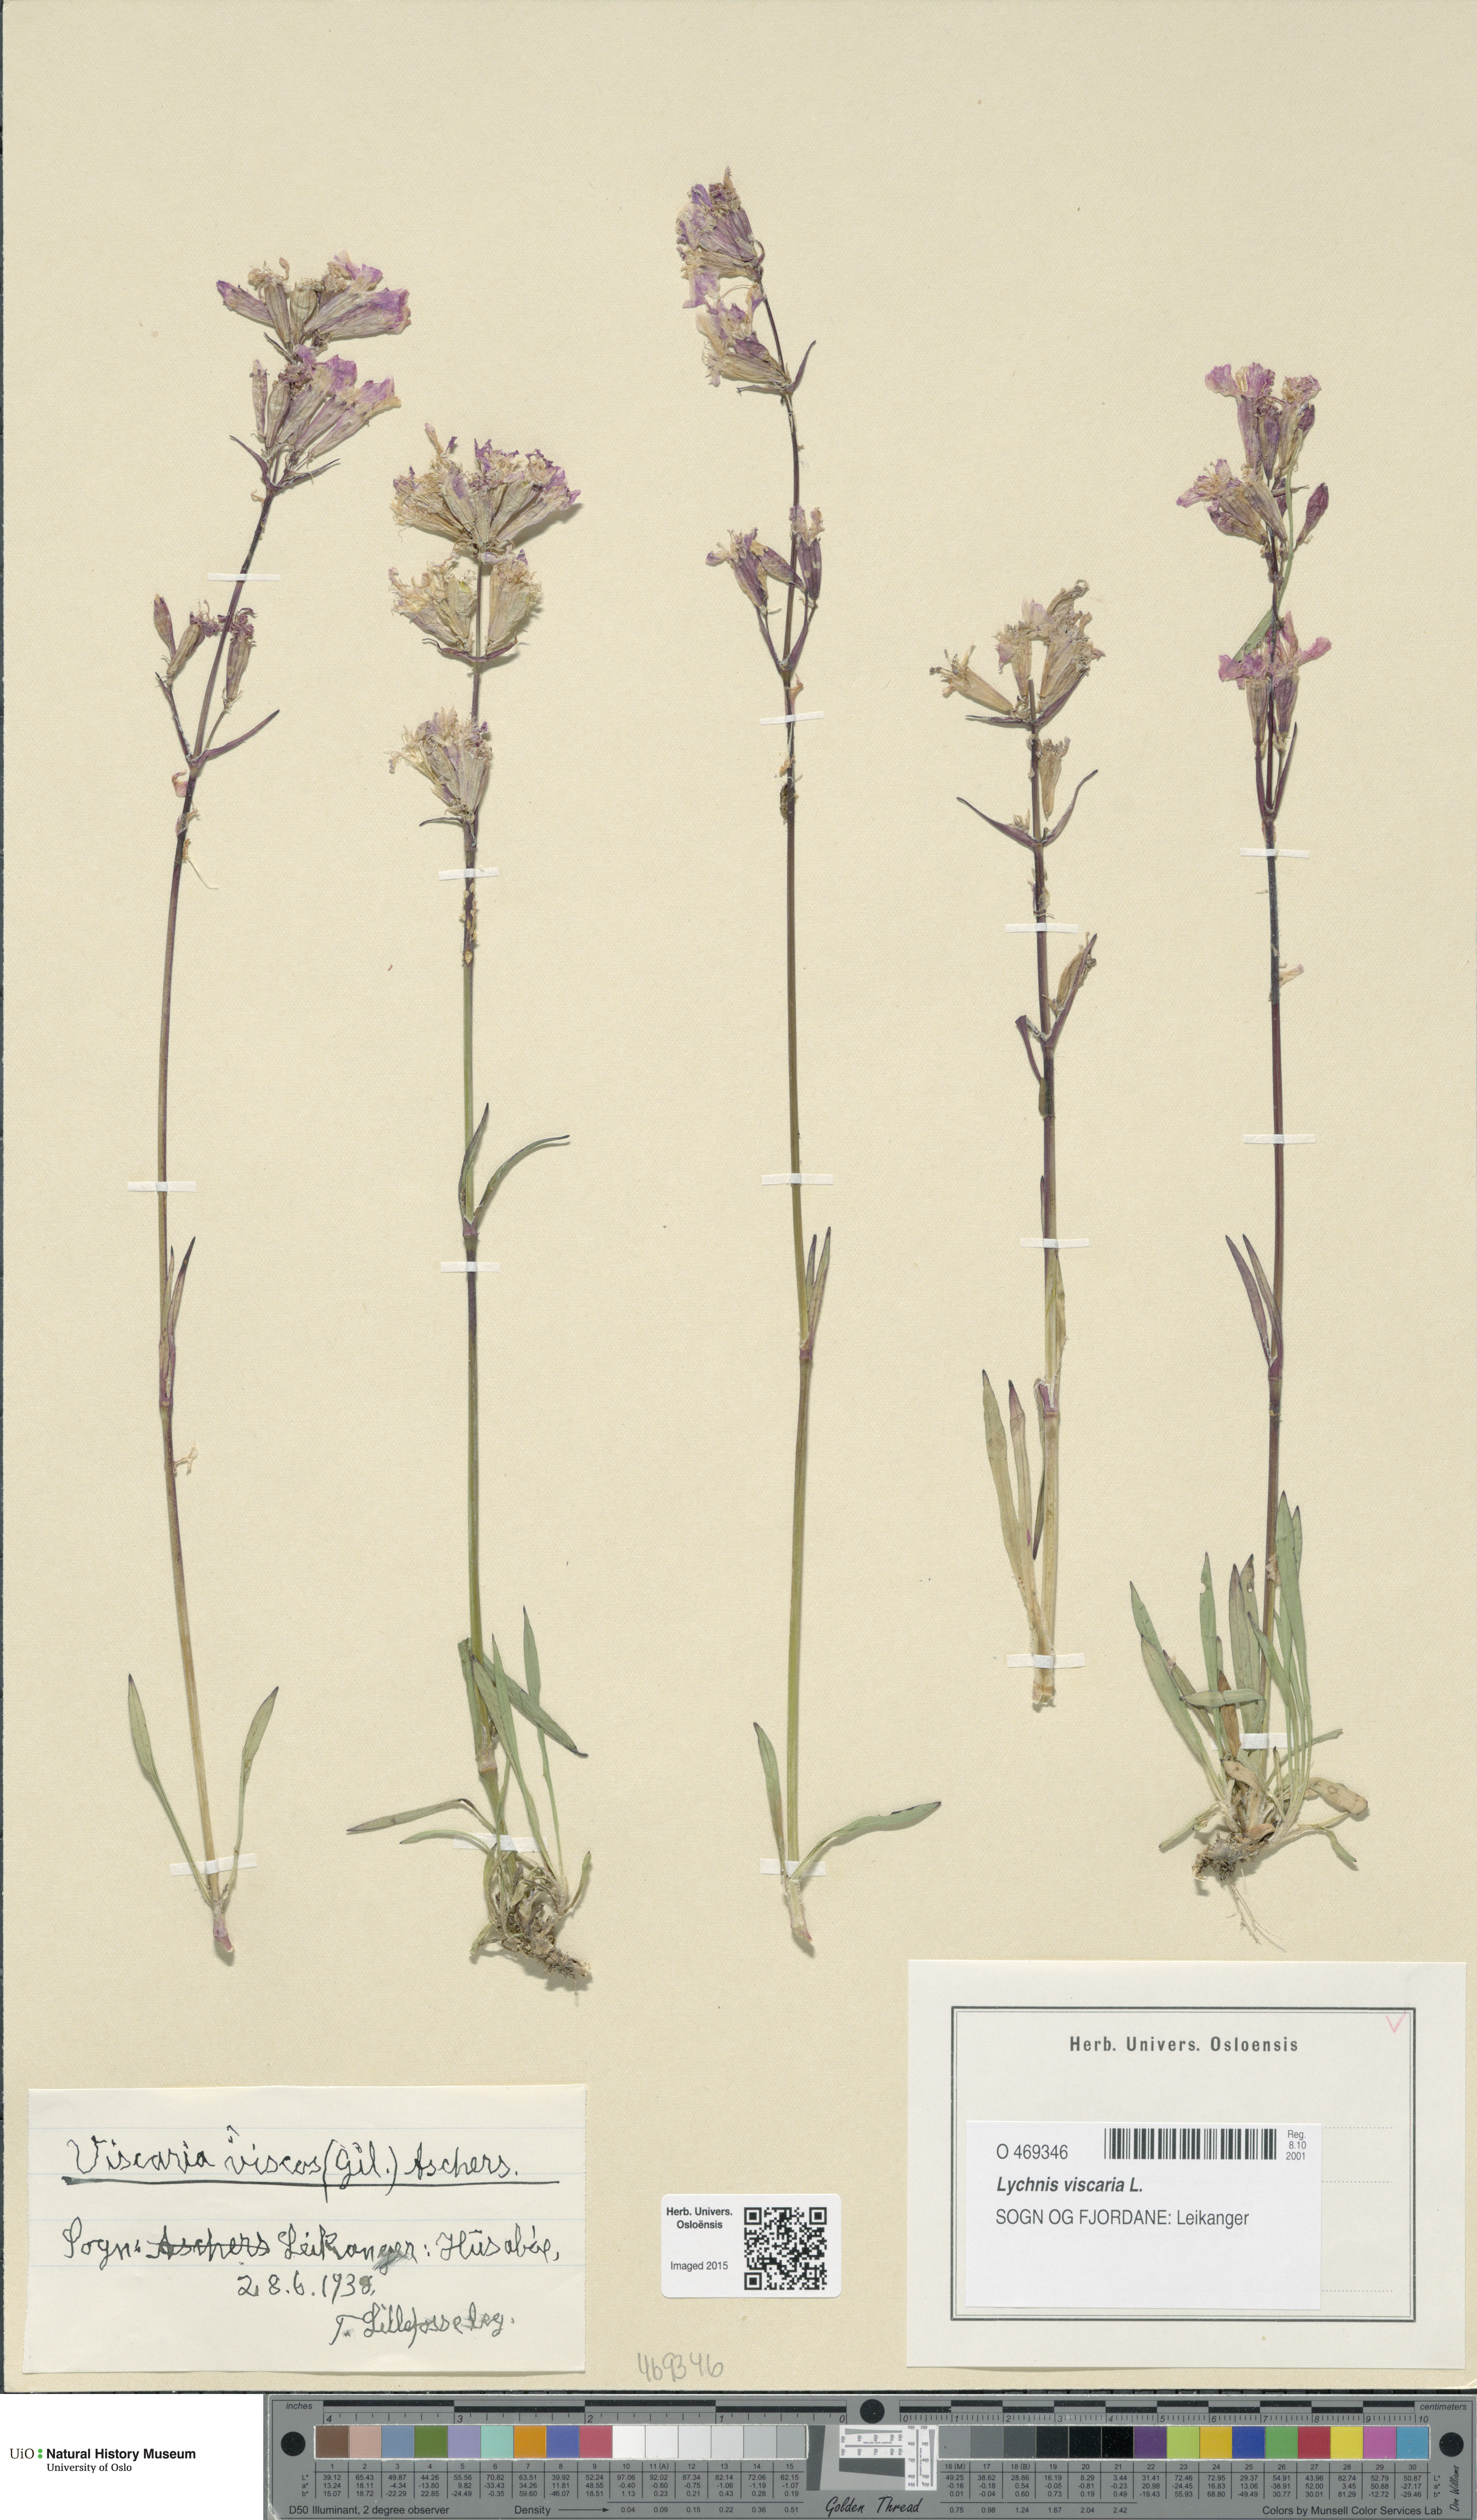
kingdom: Plantae
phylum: Tracheophyta
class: Magnoliopsida
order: Caryophyllales
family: Caryophyllaceae
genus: Viscaria
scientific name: Viscaria vulgaris
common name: Clammy campion
